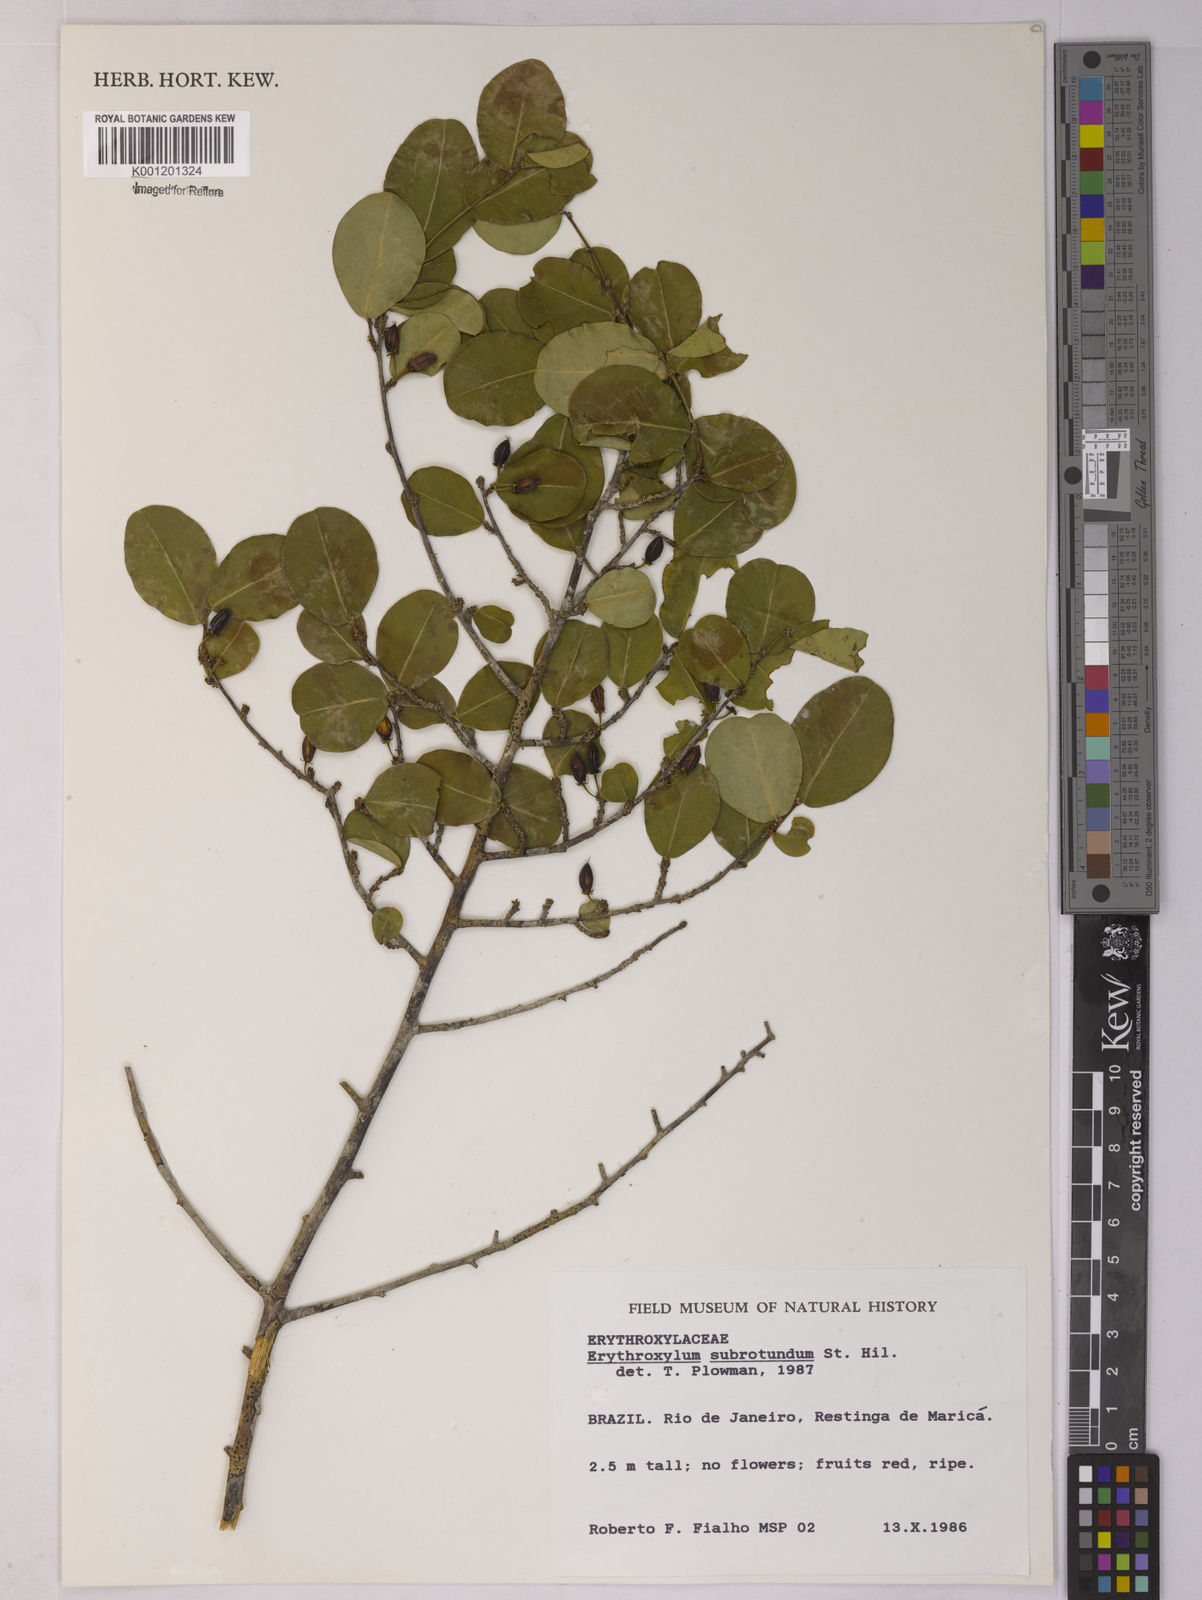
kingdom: Plantae
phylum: Tracheophyta
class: Magnoliopsida
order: Malpighiales
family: Erythroxylaceae
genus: Erythroxylum
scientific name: Erythroxylum subrotundum
